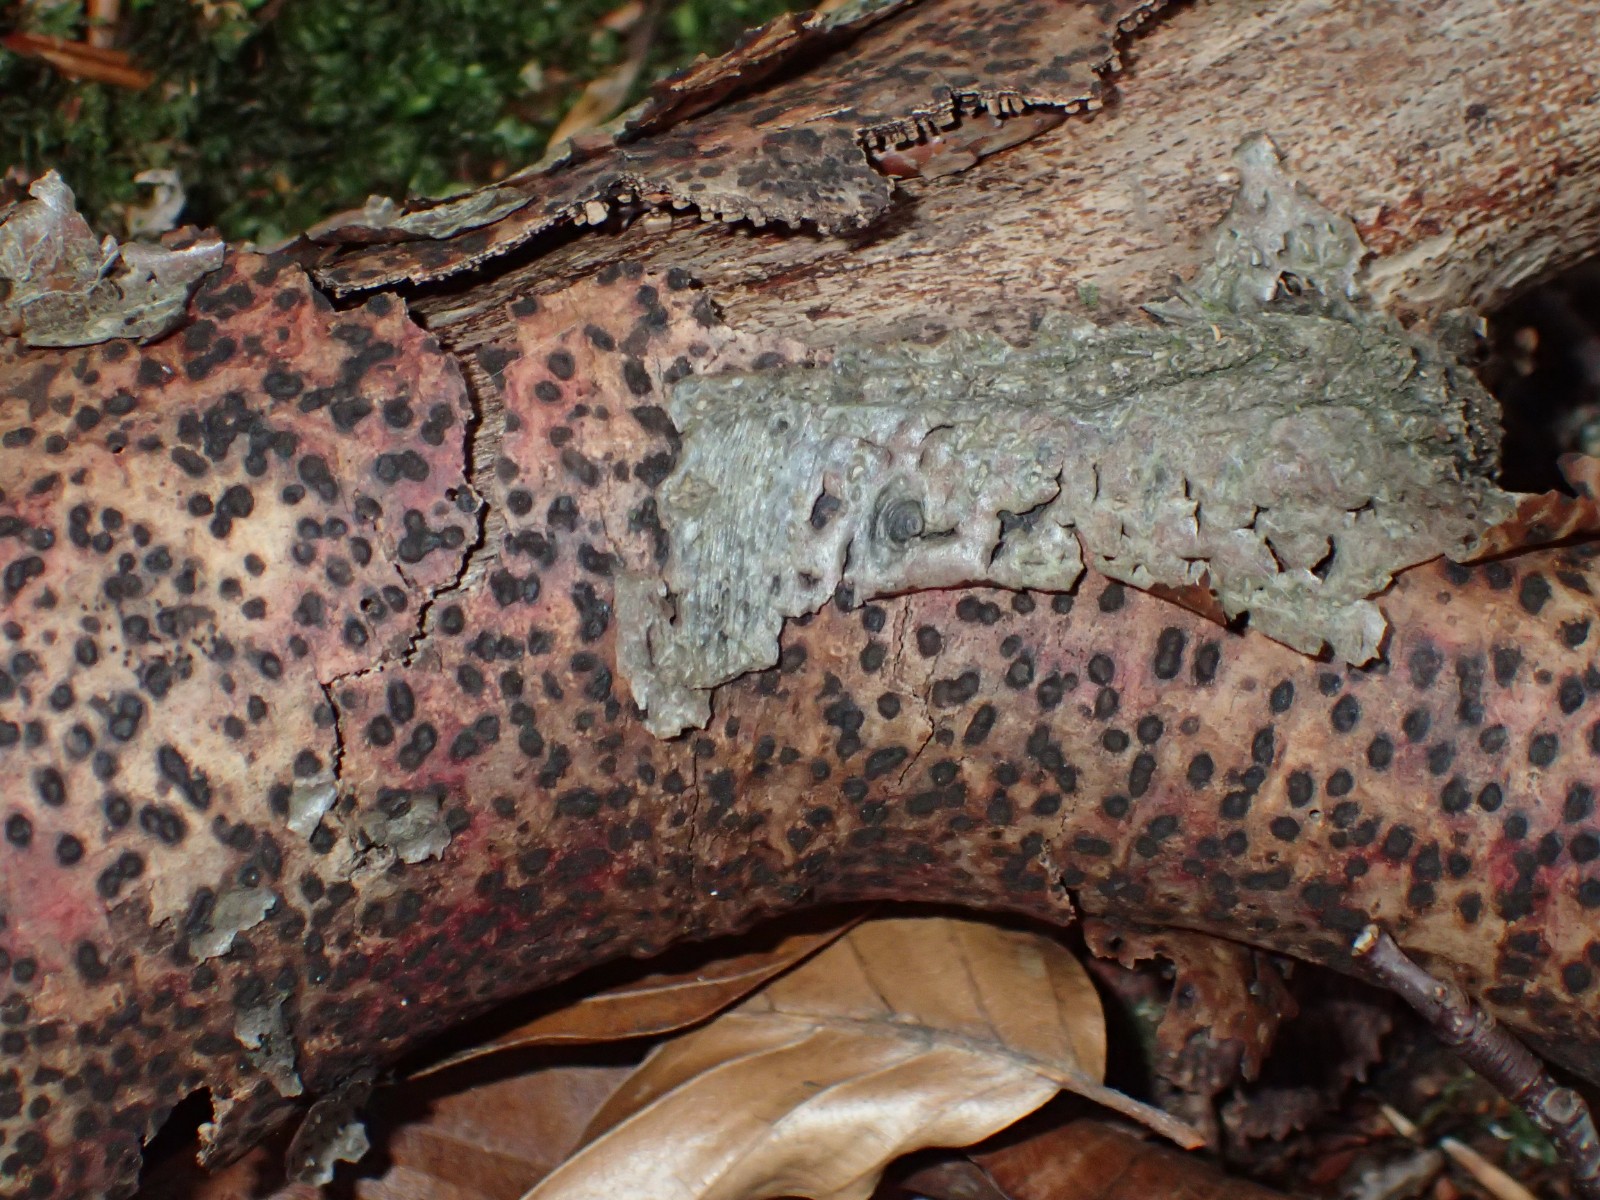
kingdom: Fungi
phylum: Ascomycota
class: Sordariomycetes
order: Sordariales
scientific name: Sordariales
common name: kernesvampordenen
